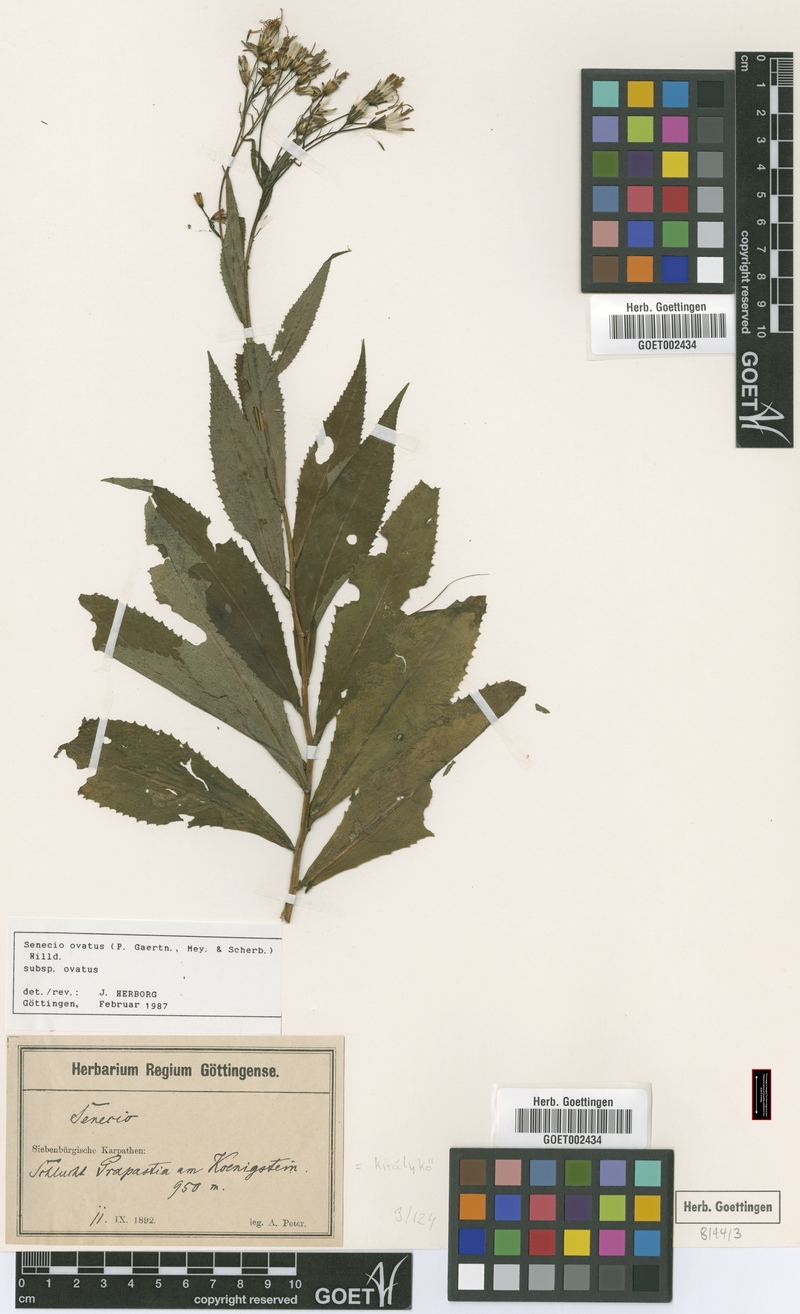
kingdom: Plantae
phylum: Tracheophyta
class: Magnoliopsida
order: Asterales
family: Asteraceae
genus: Senecio
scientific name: Senecio ovatus
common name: Wood ragwort
